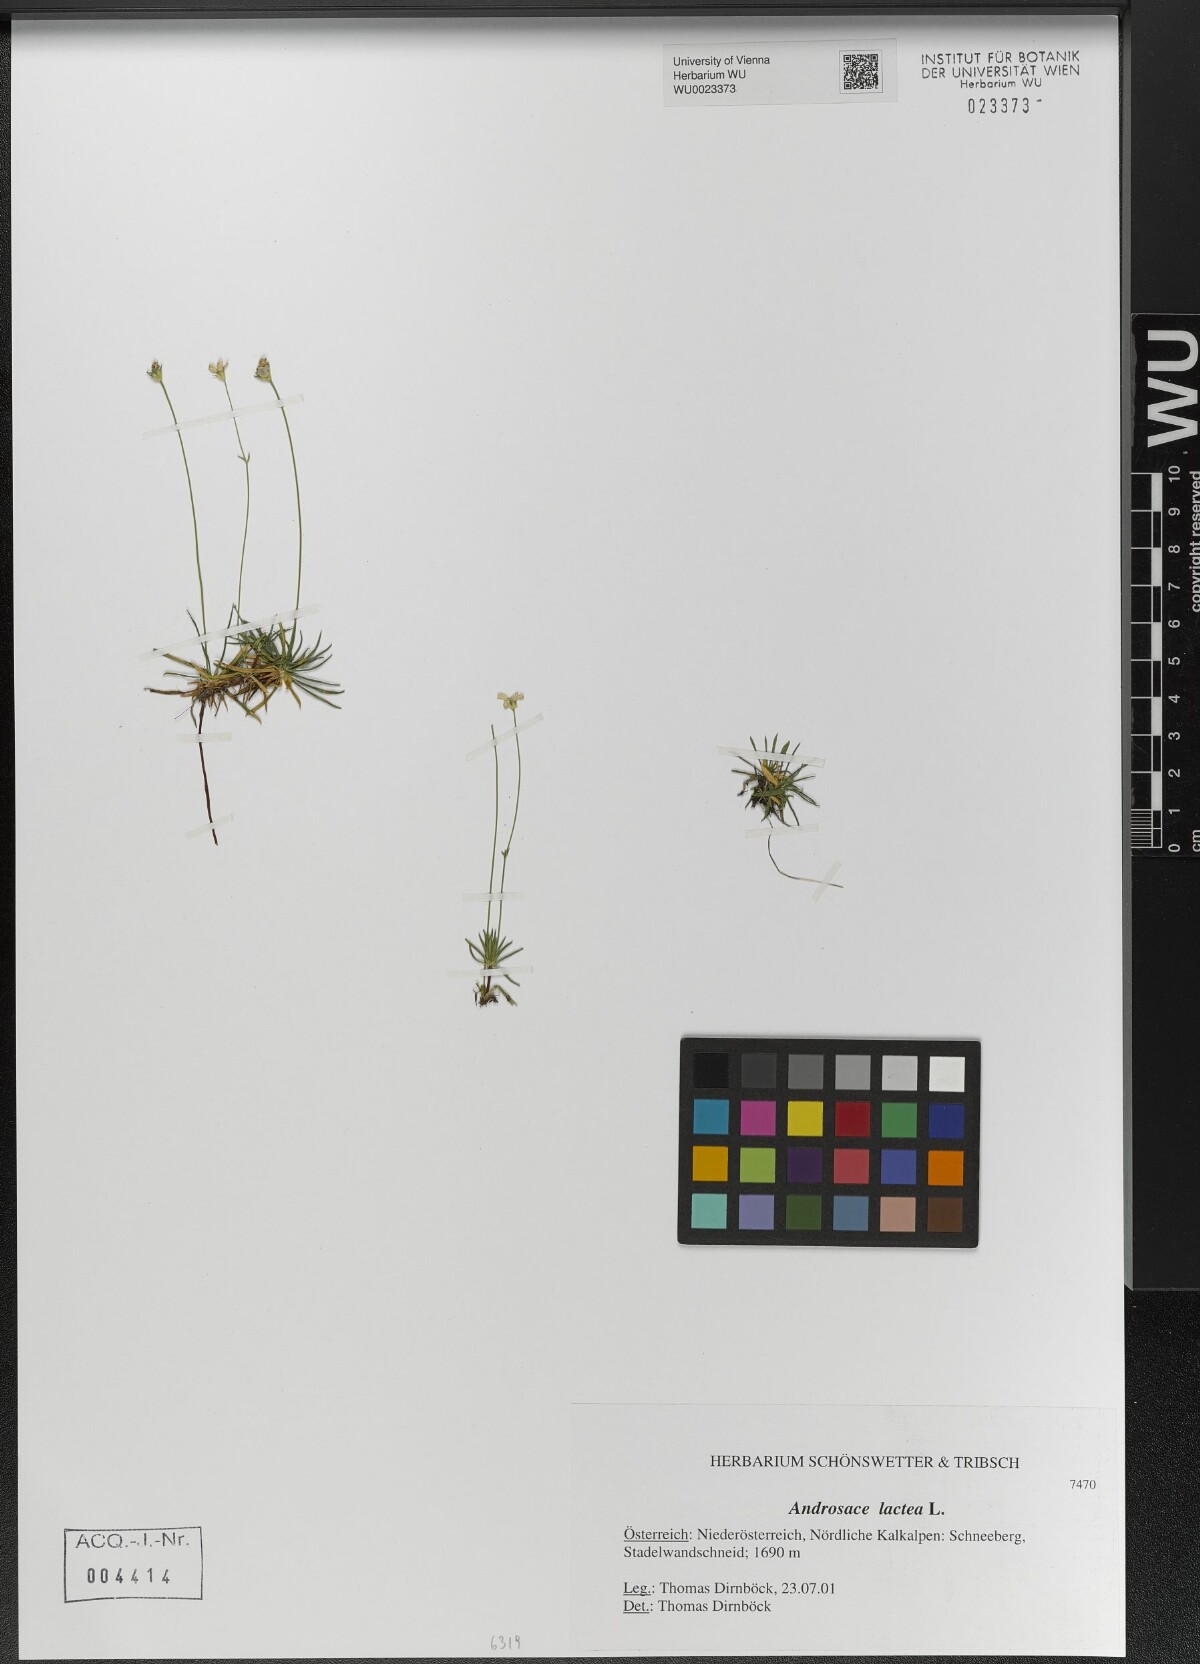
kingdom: Plantae
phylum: Tracheophyta
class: Magnoliopsida
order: Ericales
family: Primulaceae
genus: Androsace
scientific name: Androsace lactea
